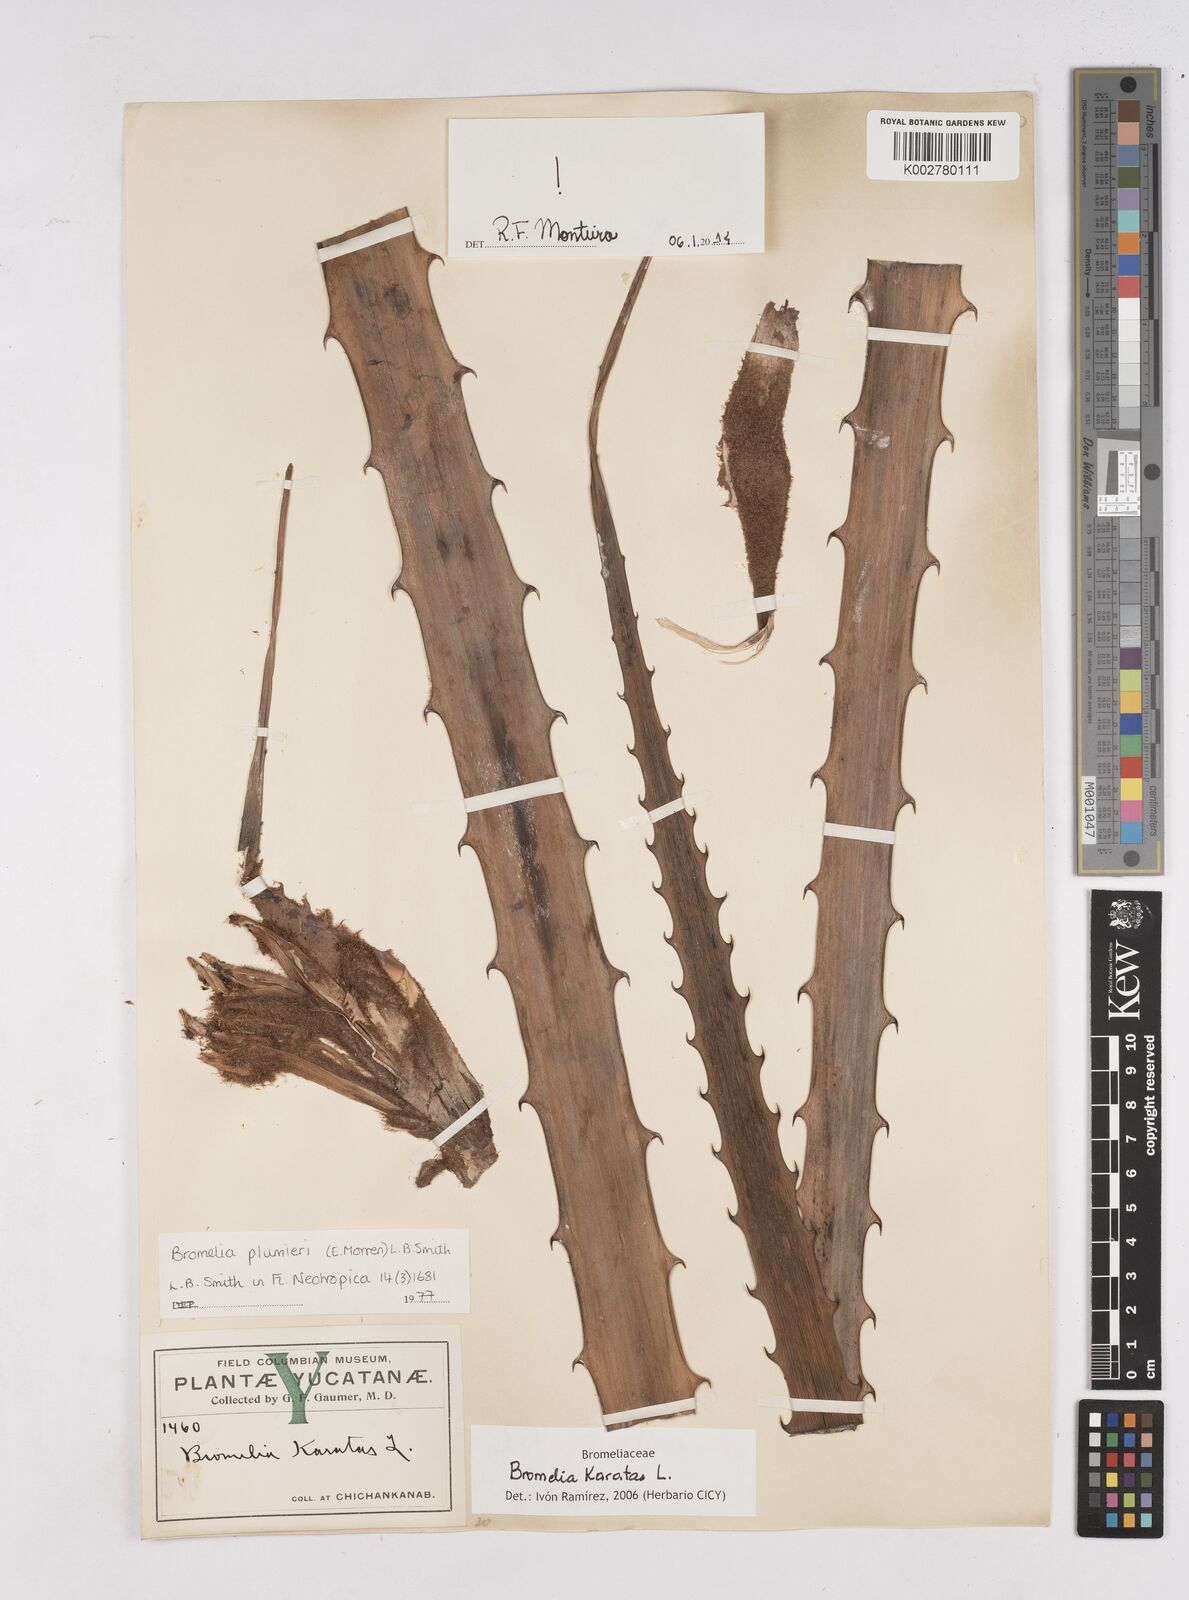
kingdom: Plantae
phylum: Tracheophyta
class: Liliopsida
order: Poales
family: Bromeliaceae
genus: Bromelia
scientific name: Bromelia karatas
